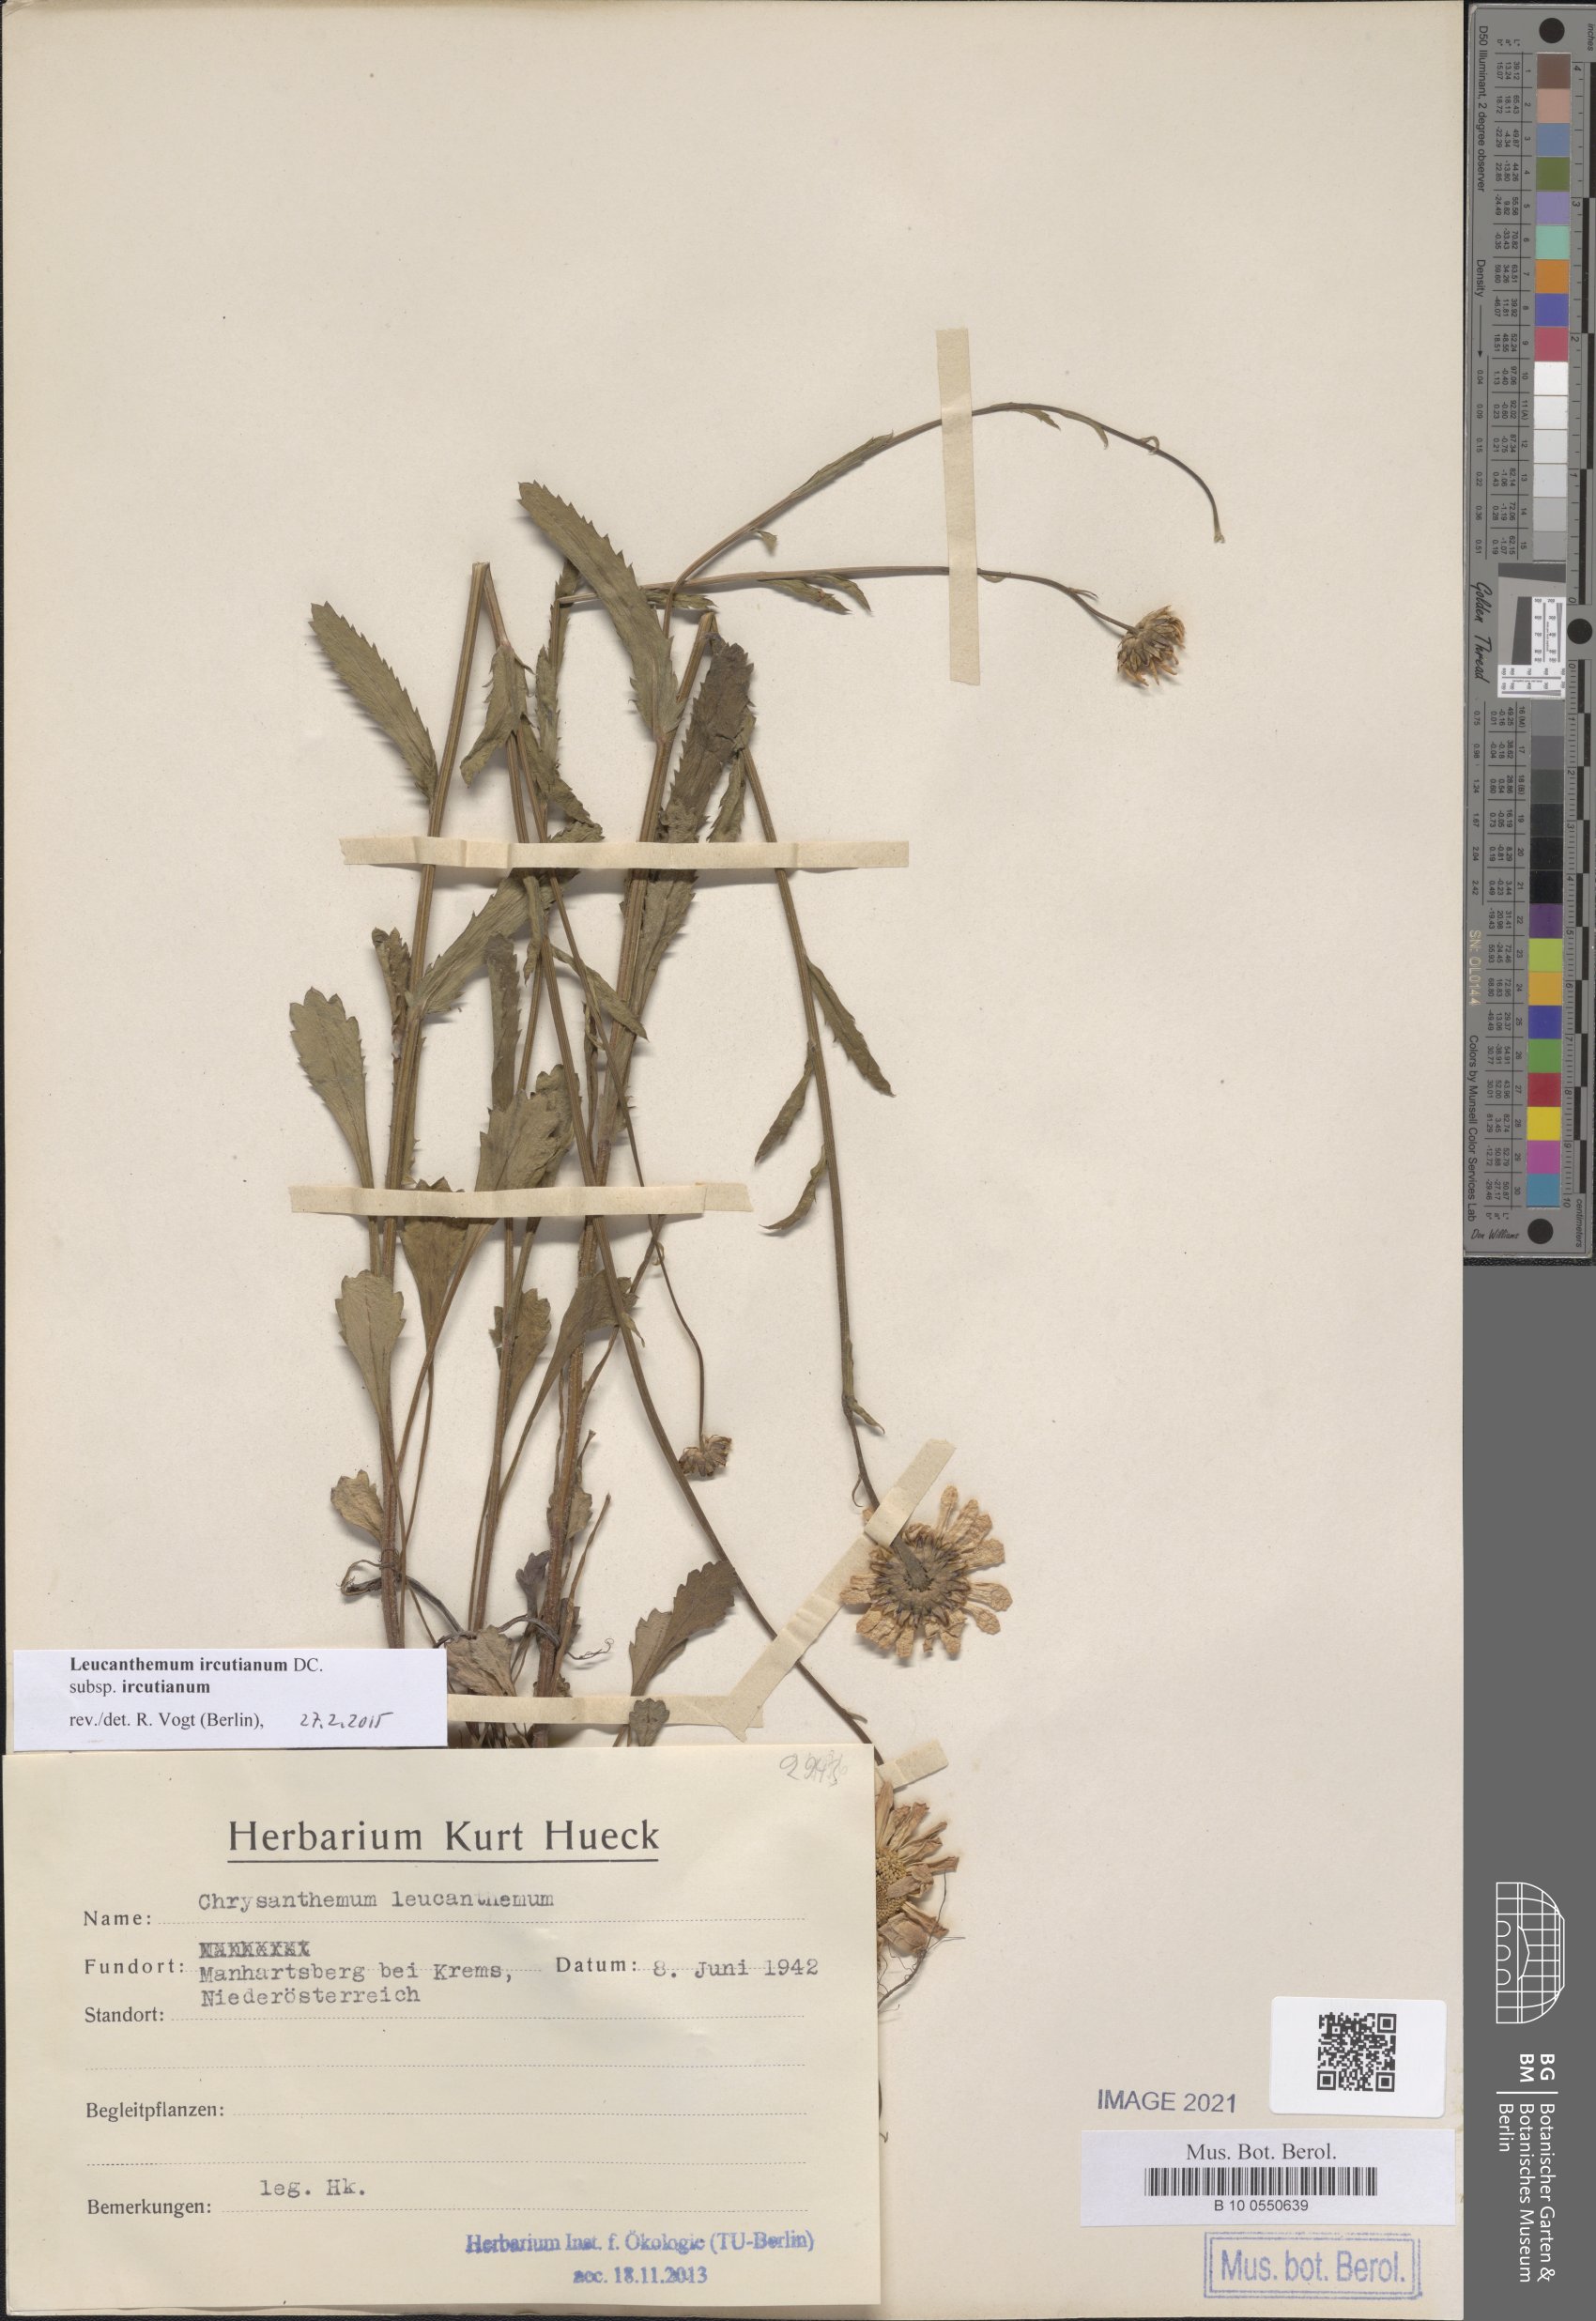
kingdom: Plantae
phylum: Tracheophyta
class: Magnoliopsida
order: Asterales
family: Asteraceae
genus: Leucanthemum
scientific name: Leucanthemum ircutianum
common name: Daisy
